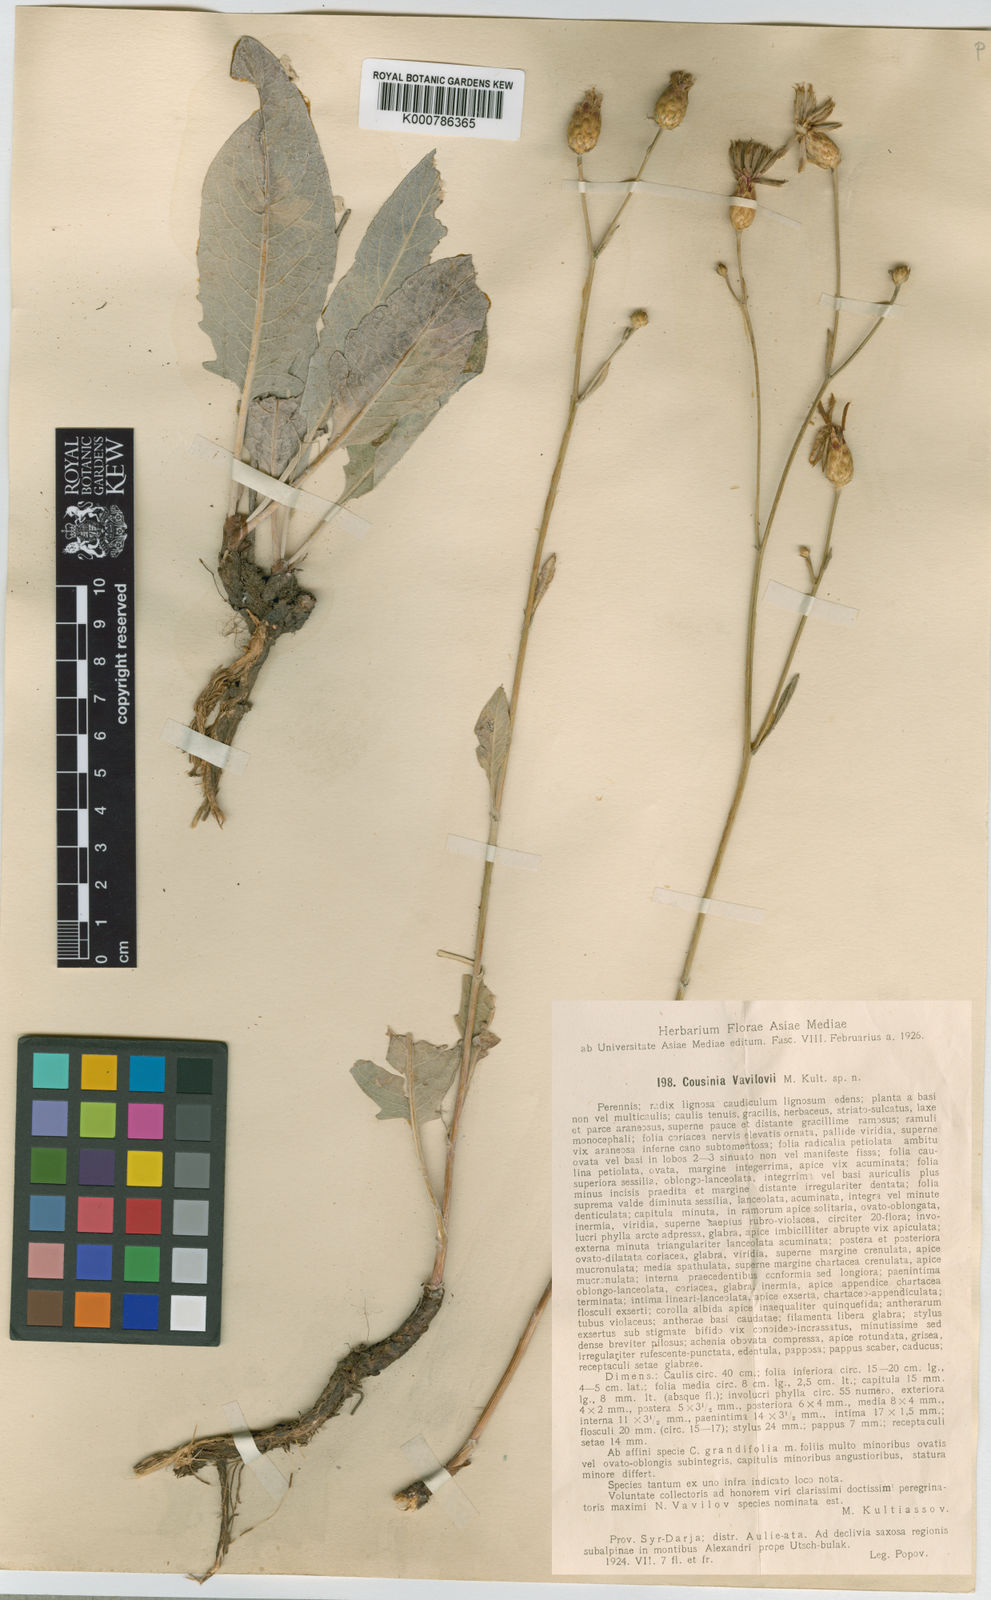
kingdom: Plantae
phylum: Tracheophyta
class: Magnoliopsida
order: Asterales
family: Asteraceae
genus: Arctium
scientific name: Arctium vavilovii
